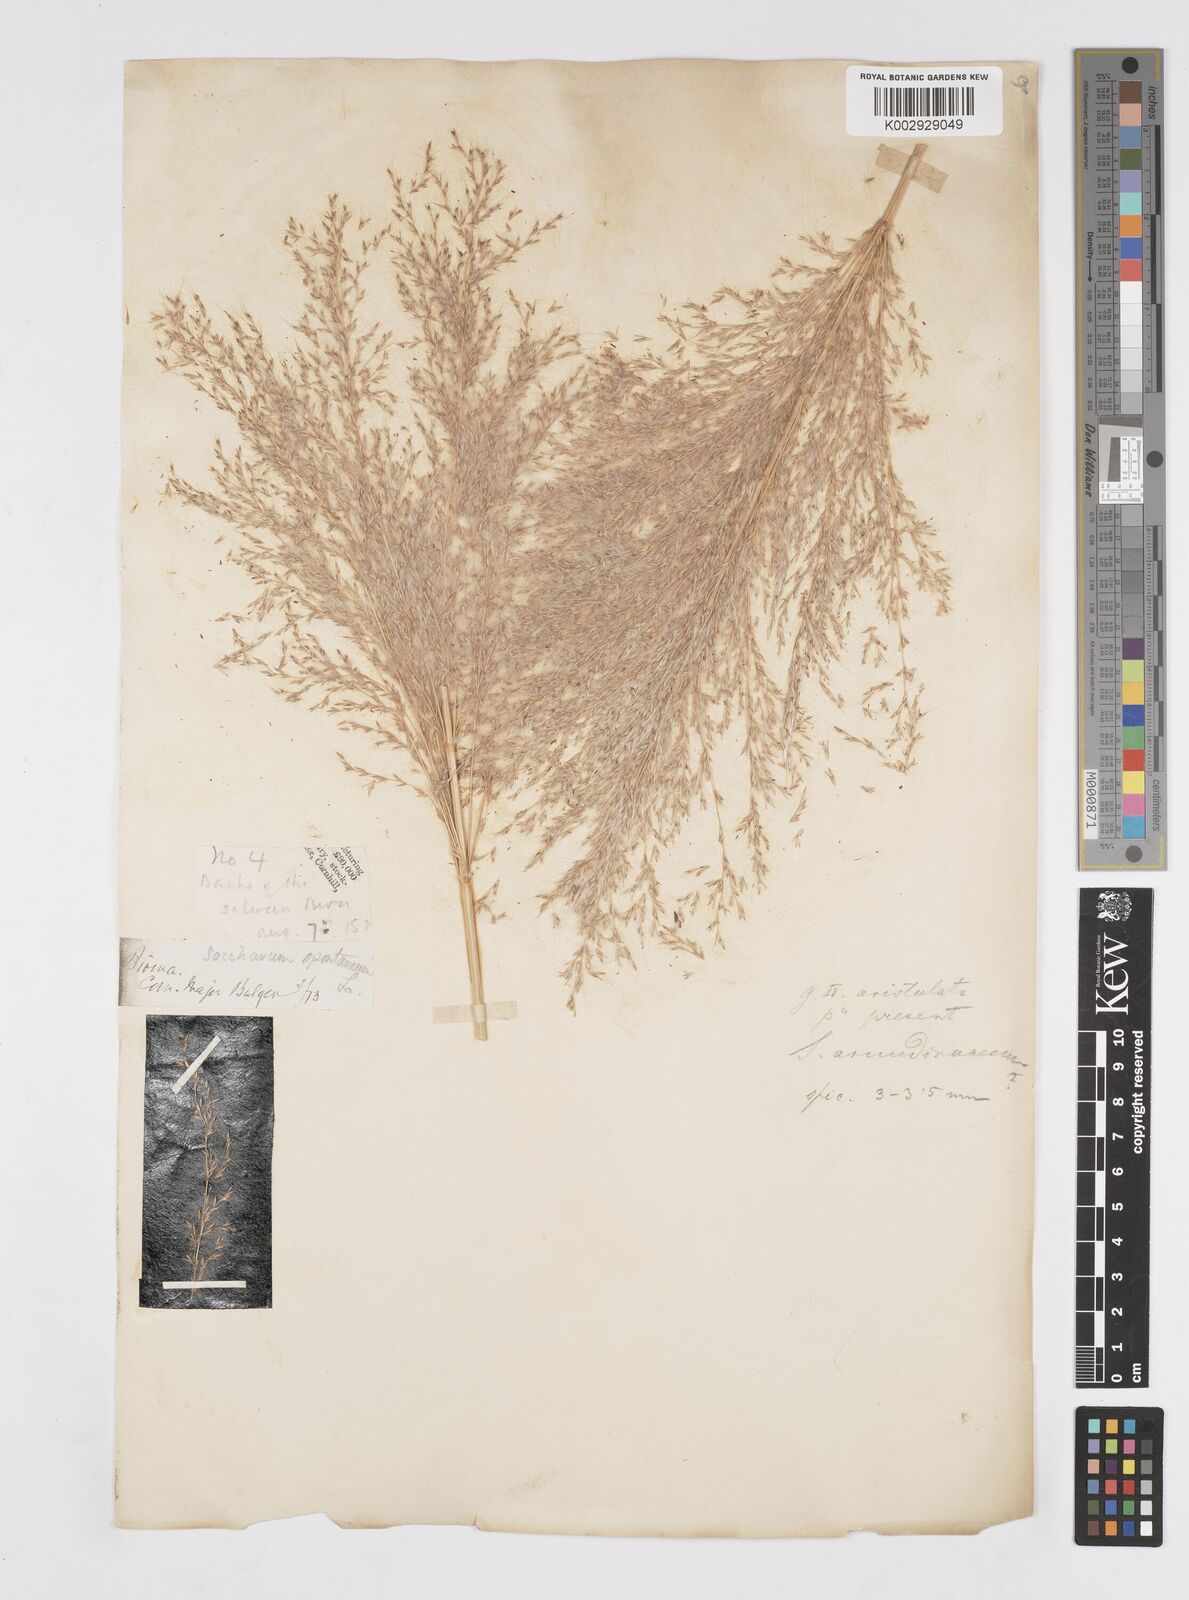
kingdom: Plantae
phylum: Tracheophyta
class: Liliopsida
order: Poales
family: Poaceae
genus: Tripidium
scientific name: Tripidium arundinaceum
